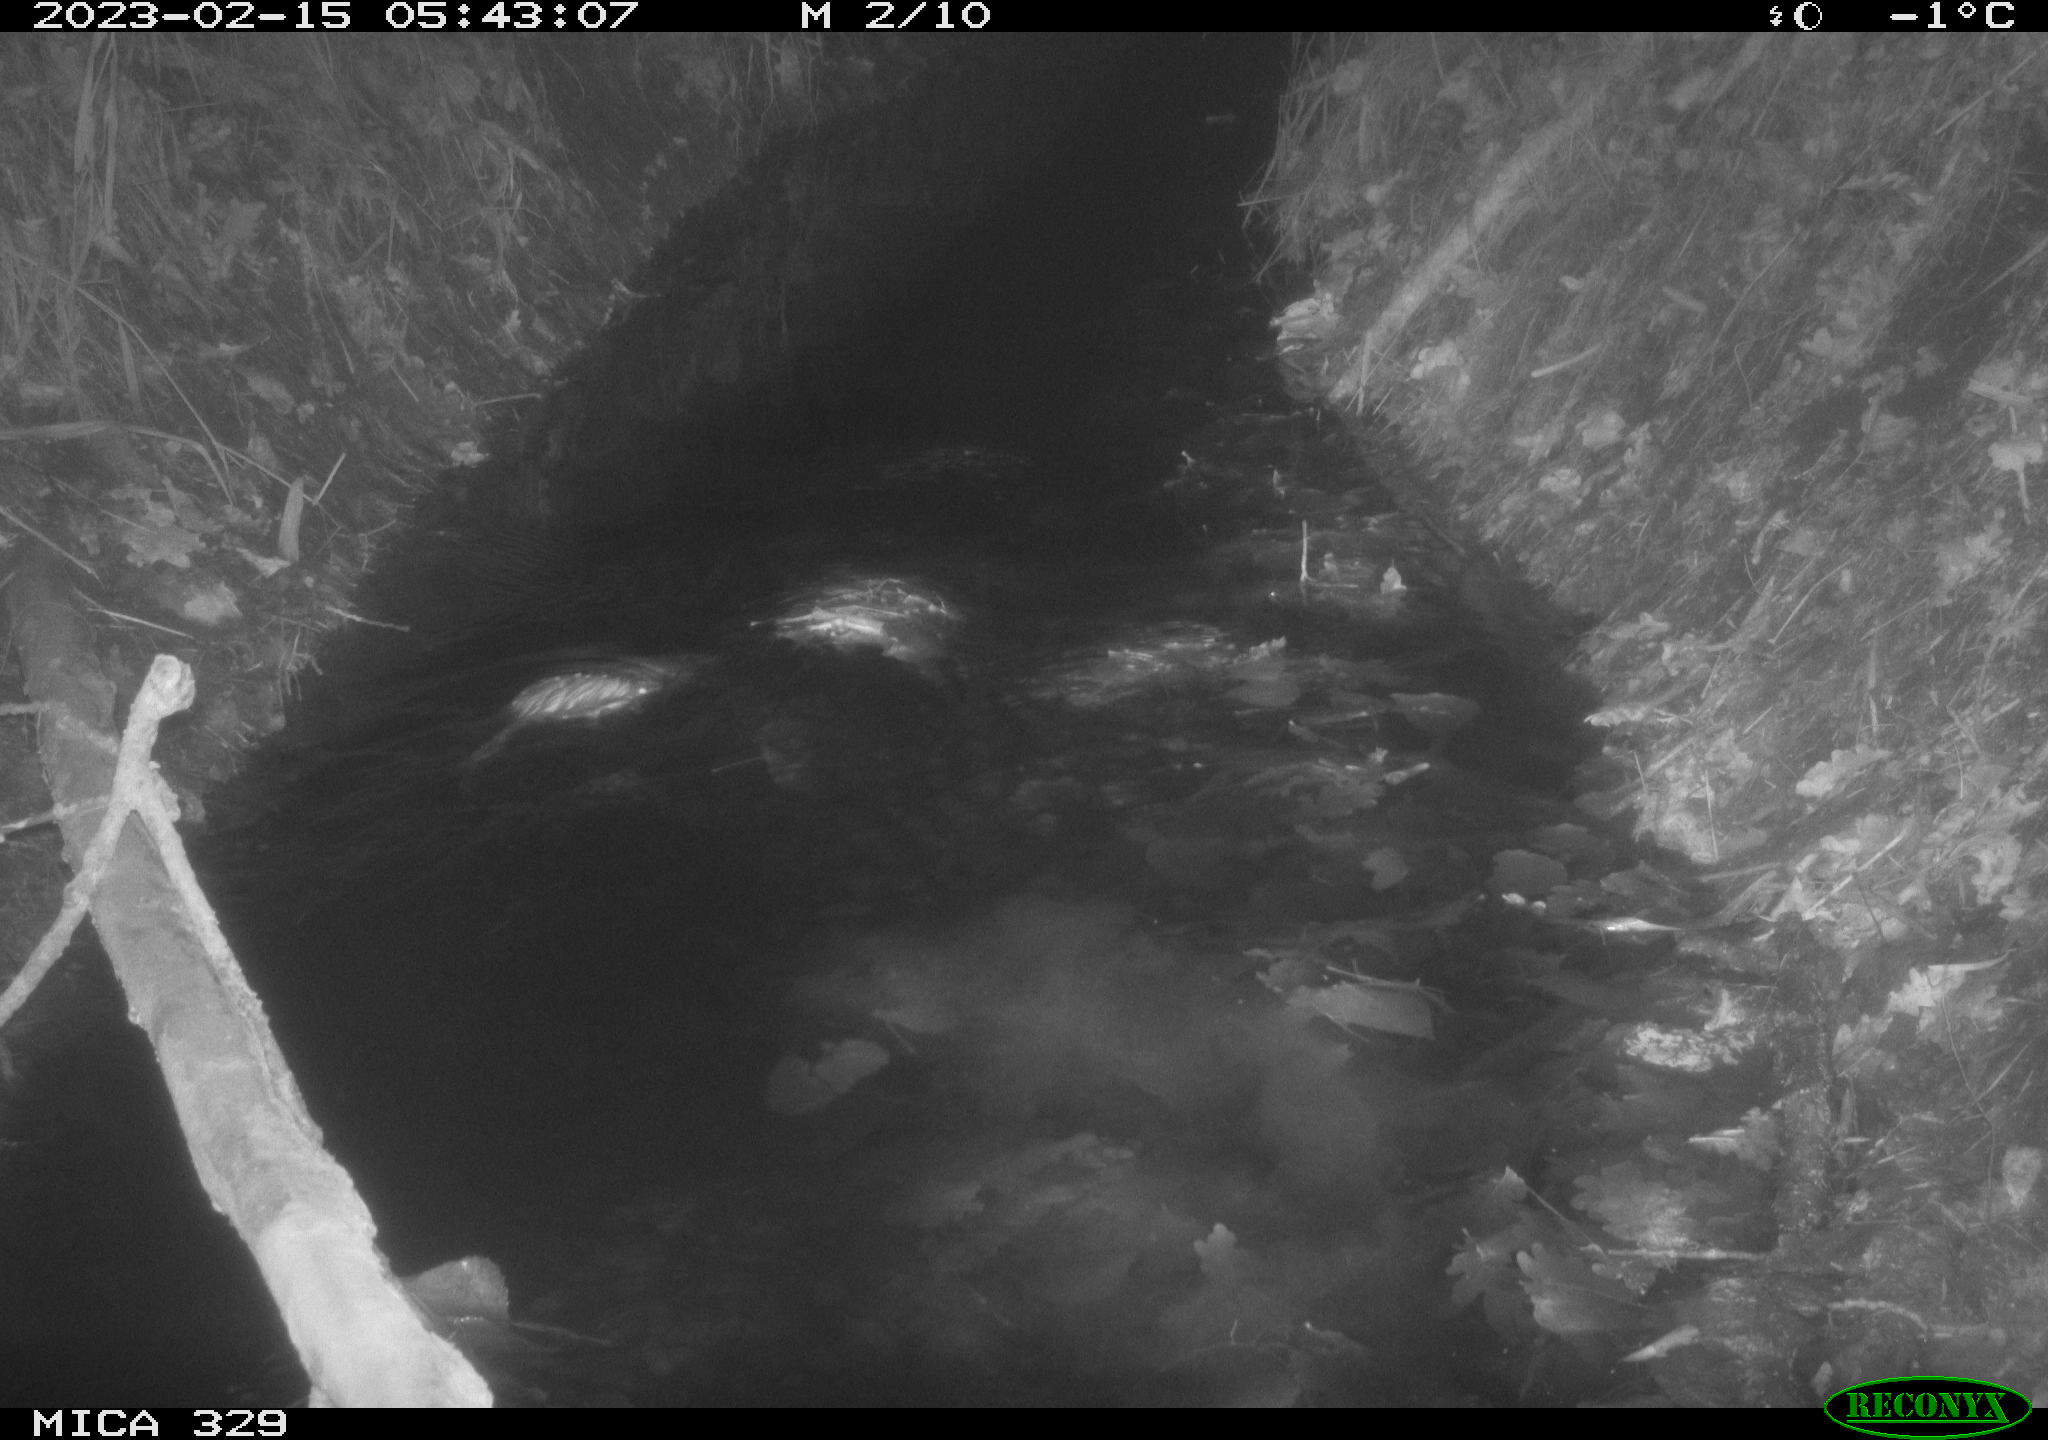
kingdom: Animalia
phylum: Chordata
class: Mammalia
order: Rodentia
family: Cricetidae
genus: Ondatra
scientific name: Ondatra zibethicus
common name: Muskrat
